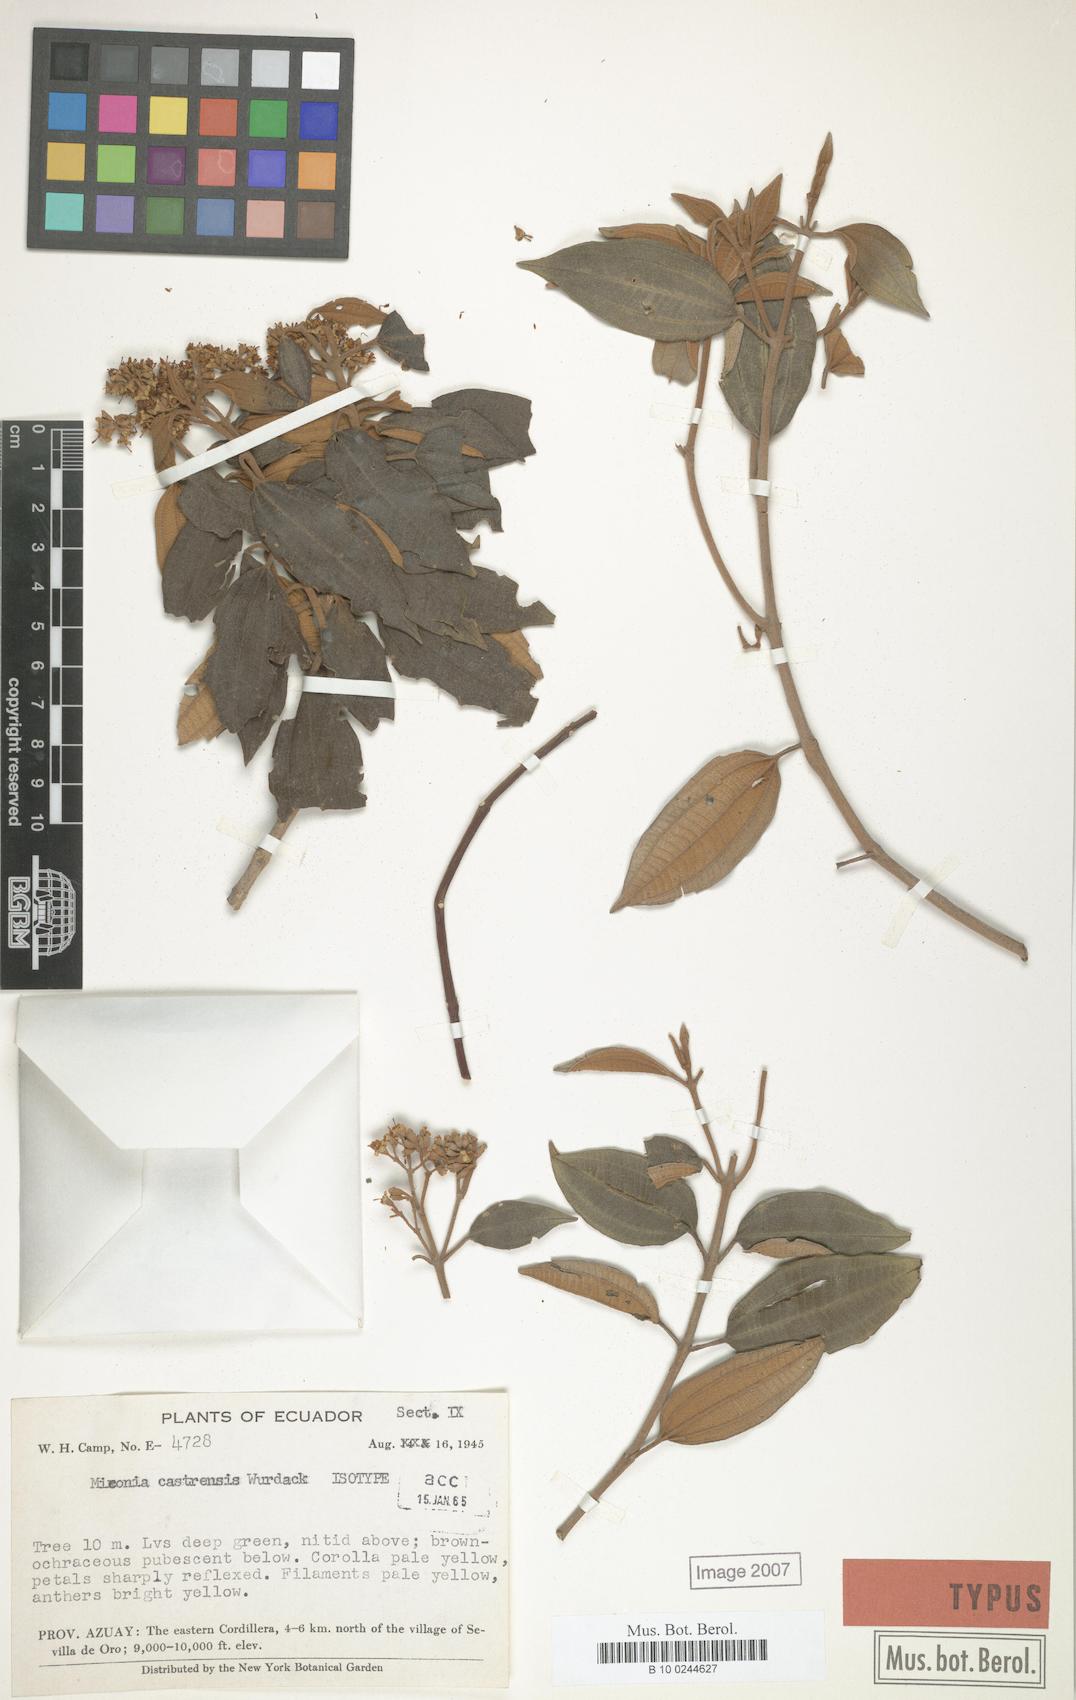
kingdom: Plantae
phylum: Tracheophyta
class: Magnoliopsida
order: Myrtales
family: Melastomataceae
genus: Miconia
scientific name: Miconia castrensis
